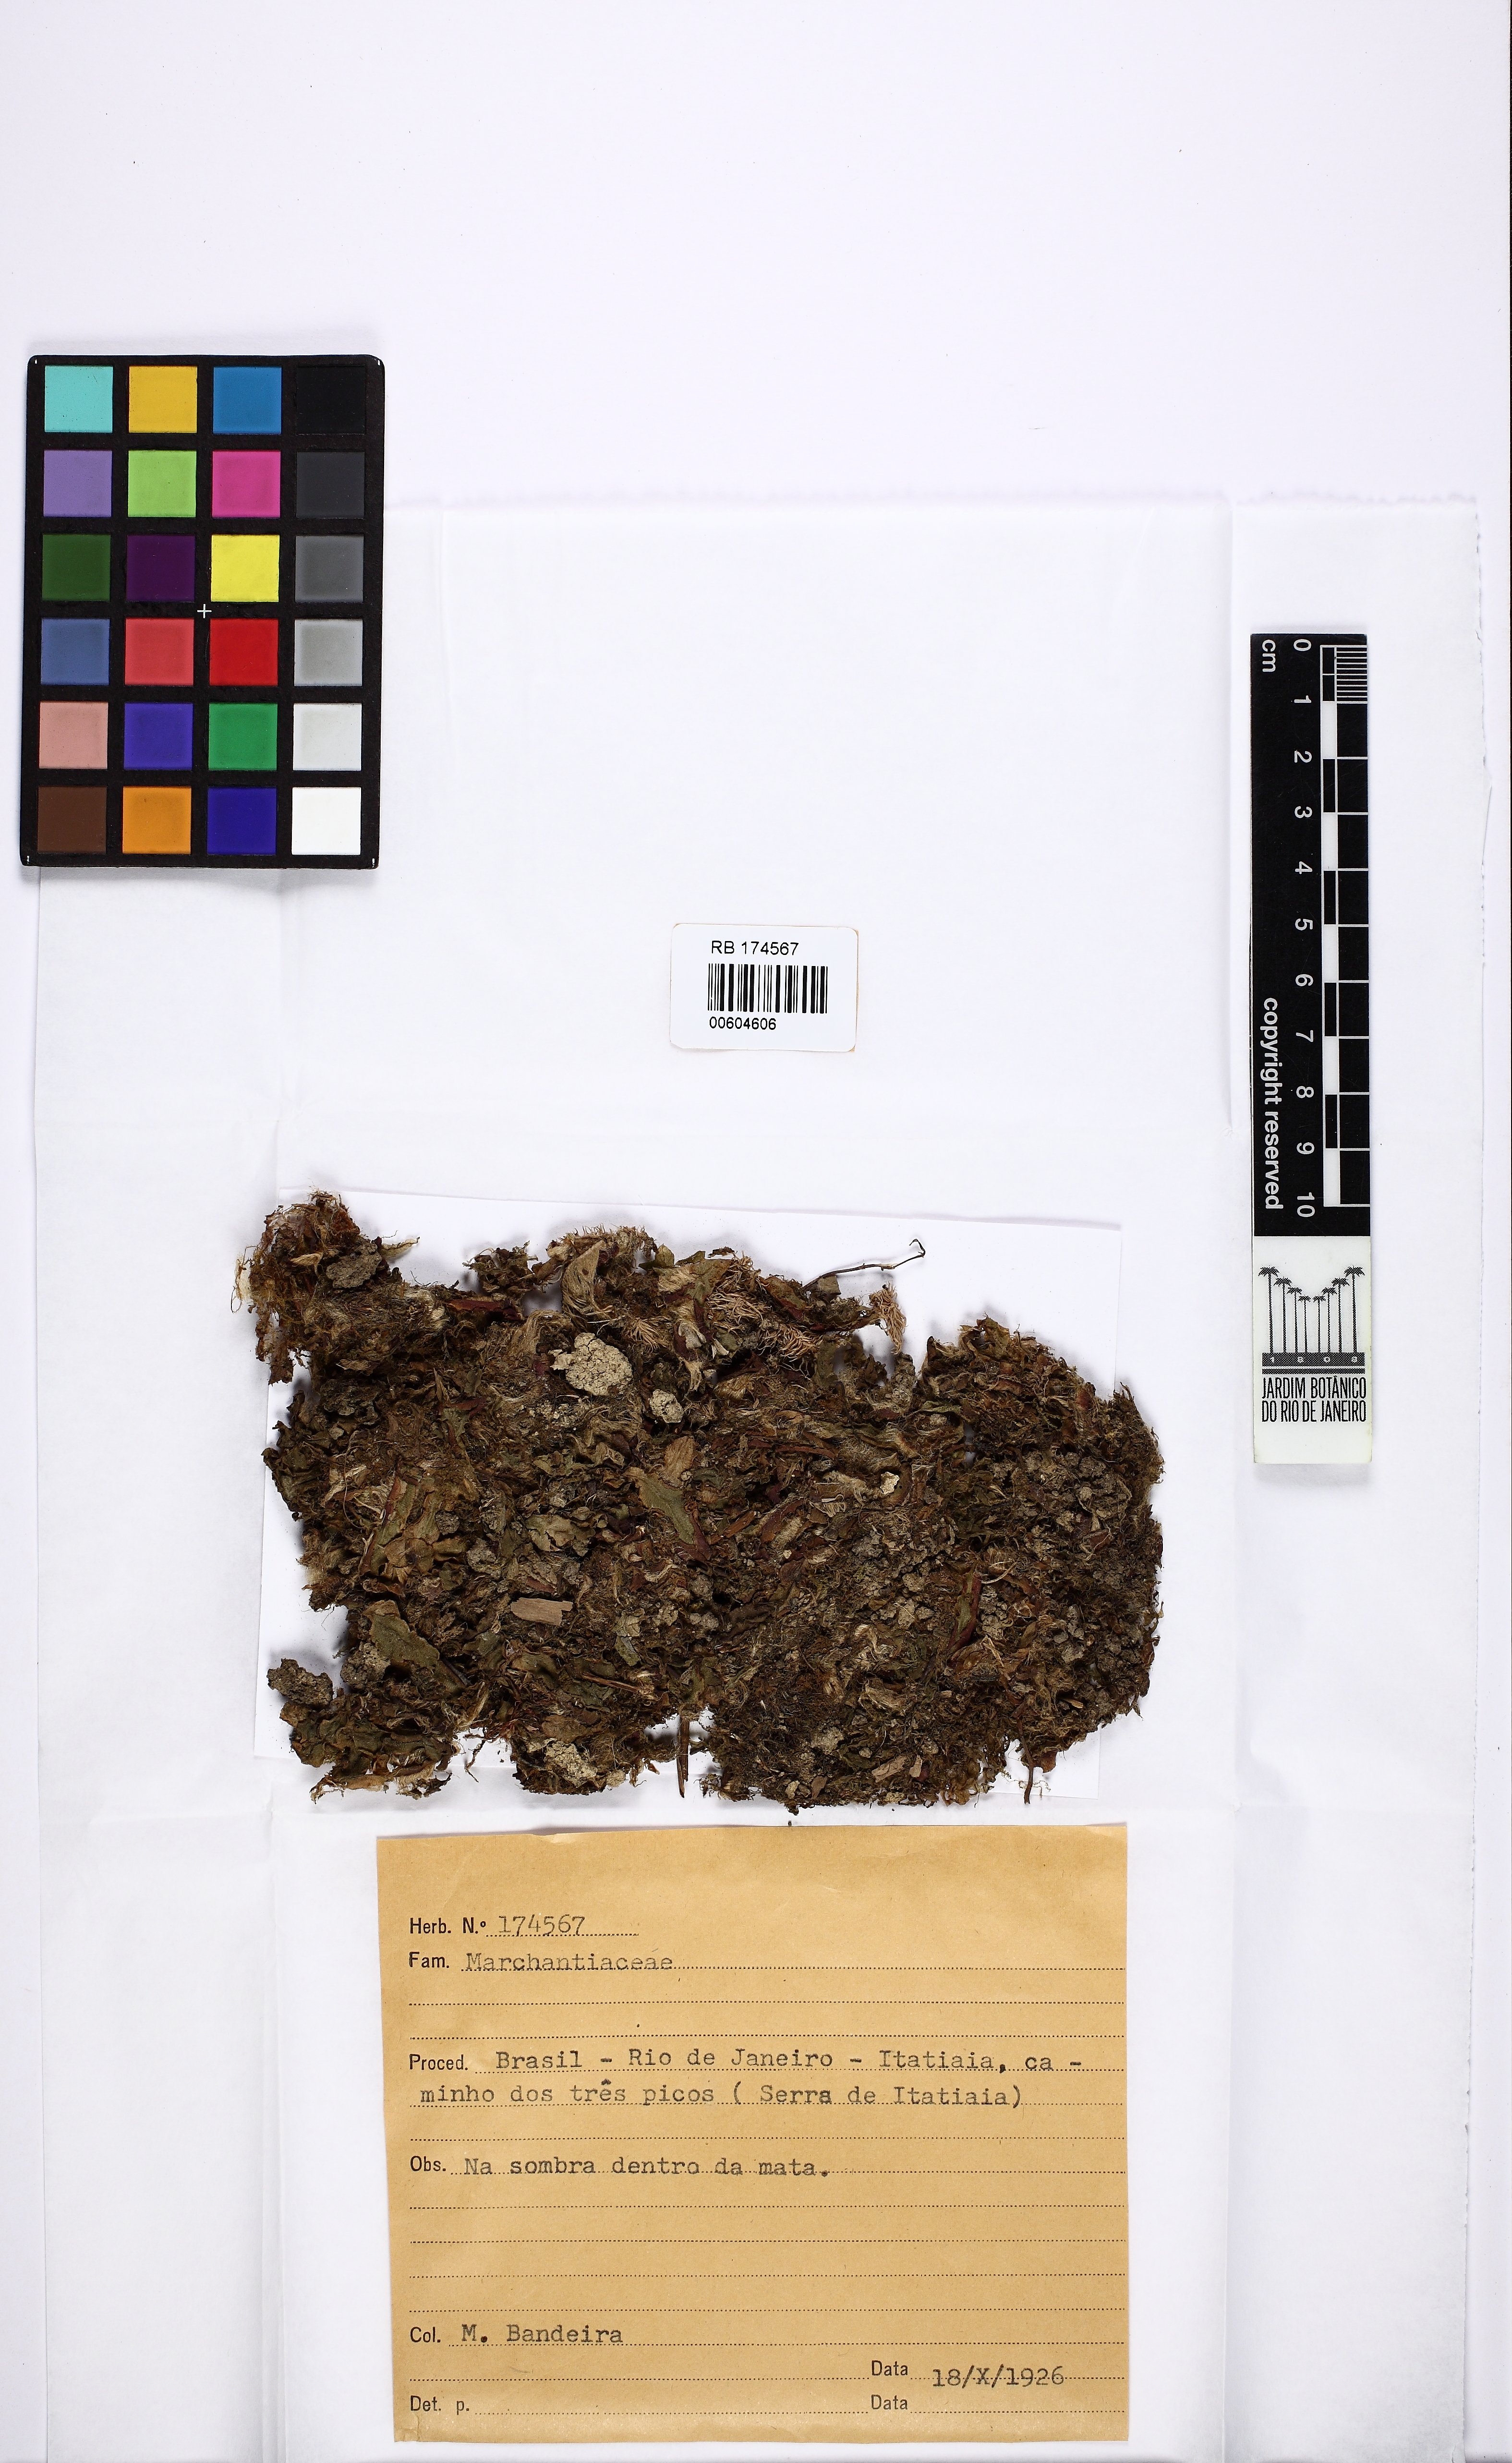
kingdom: Plantae
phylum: Marchantiophyta
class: Marchantiopsida
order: Marchantiales
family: Marchantiaceae
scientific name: Marchantiaceae
